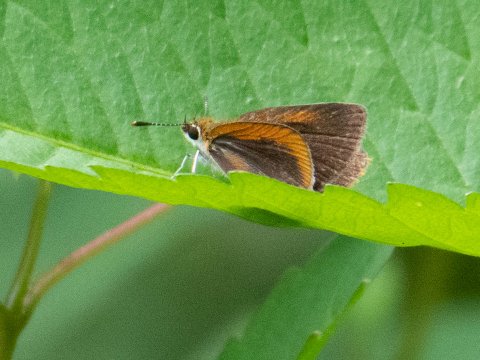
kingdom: Animalia
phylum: Arthropoda
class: Insecta
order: Lepidoptera
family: Hesperiidae
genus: Ancyloxypha
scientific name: Ancyloxypha numitor
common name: Least Skipper
